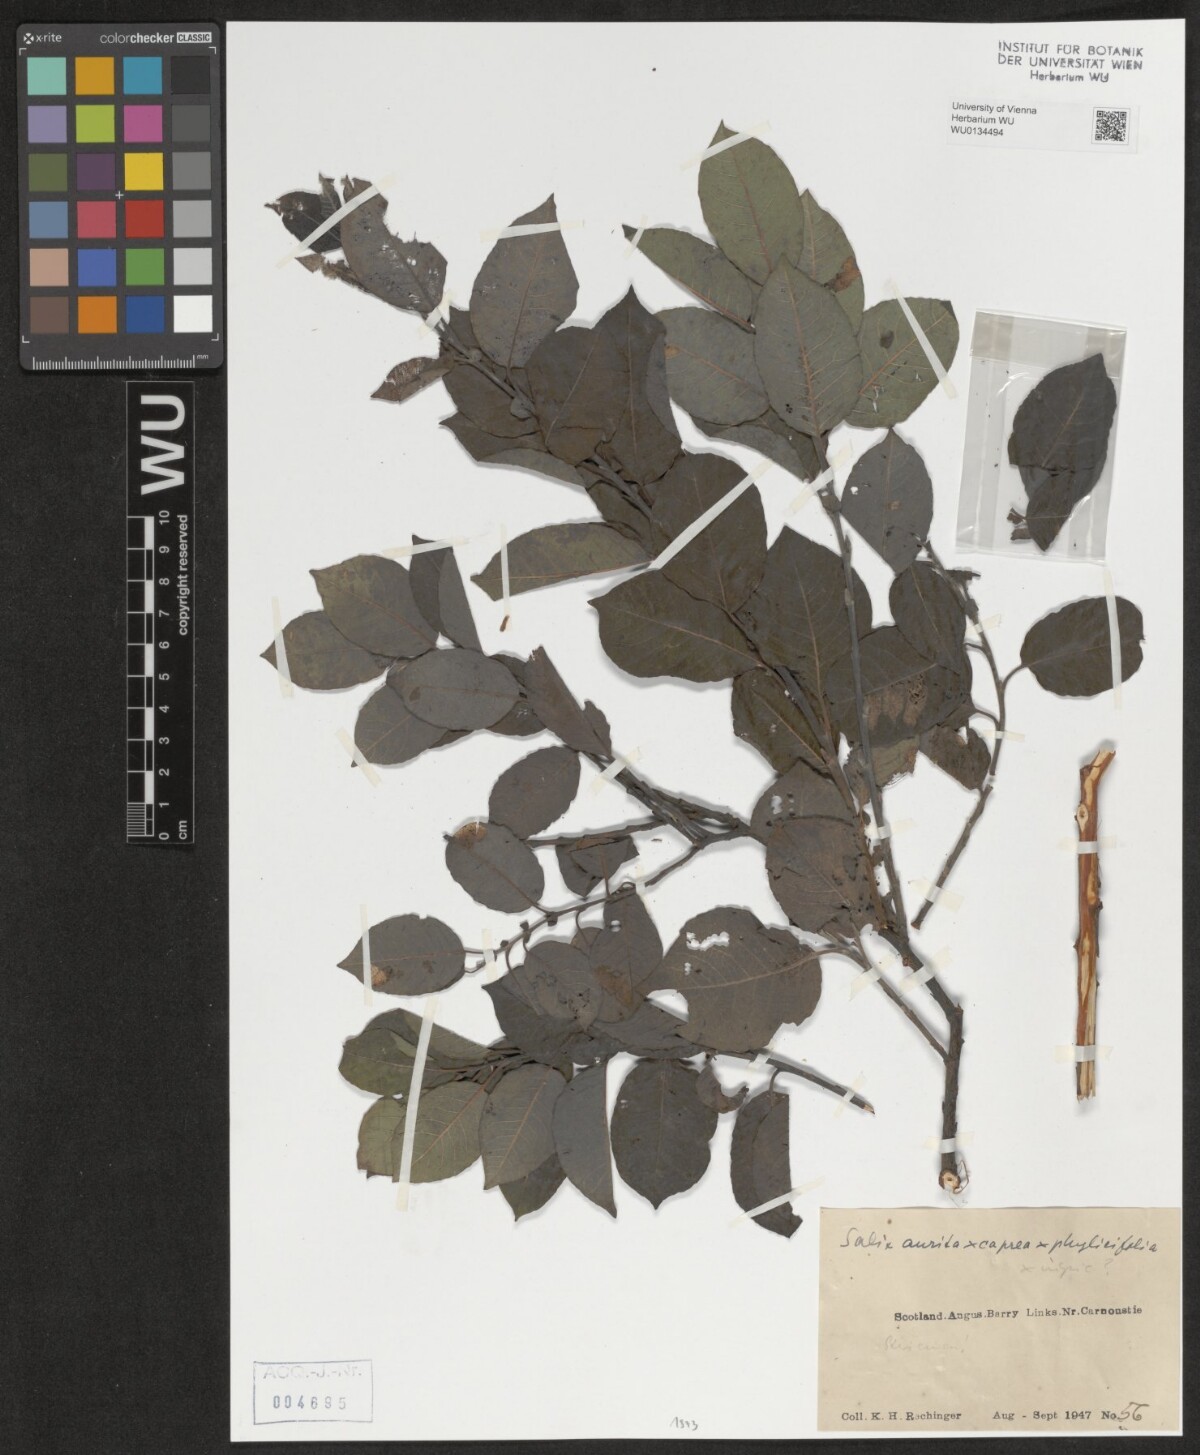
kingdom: Plantae
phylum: Tracheophyta
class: Magnoliopsida
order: Malpighiales
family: Salicaceae
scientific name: Salicaceae
